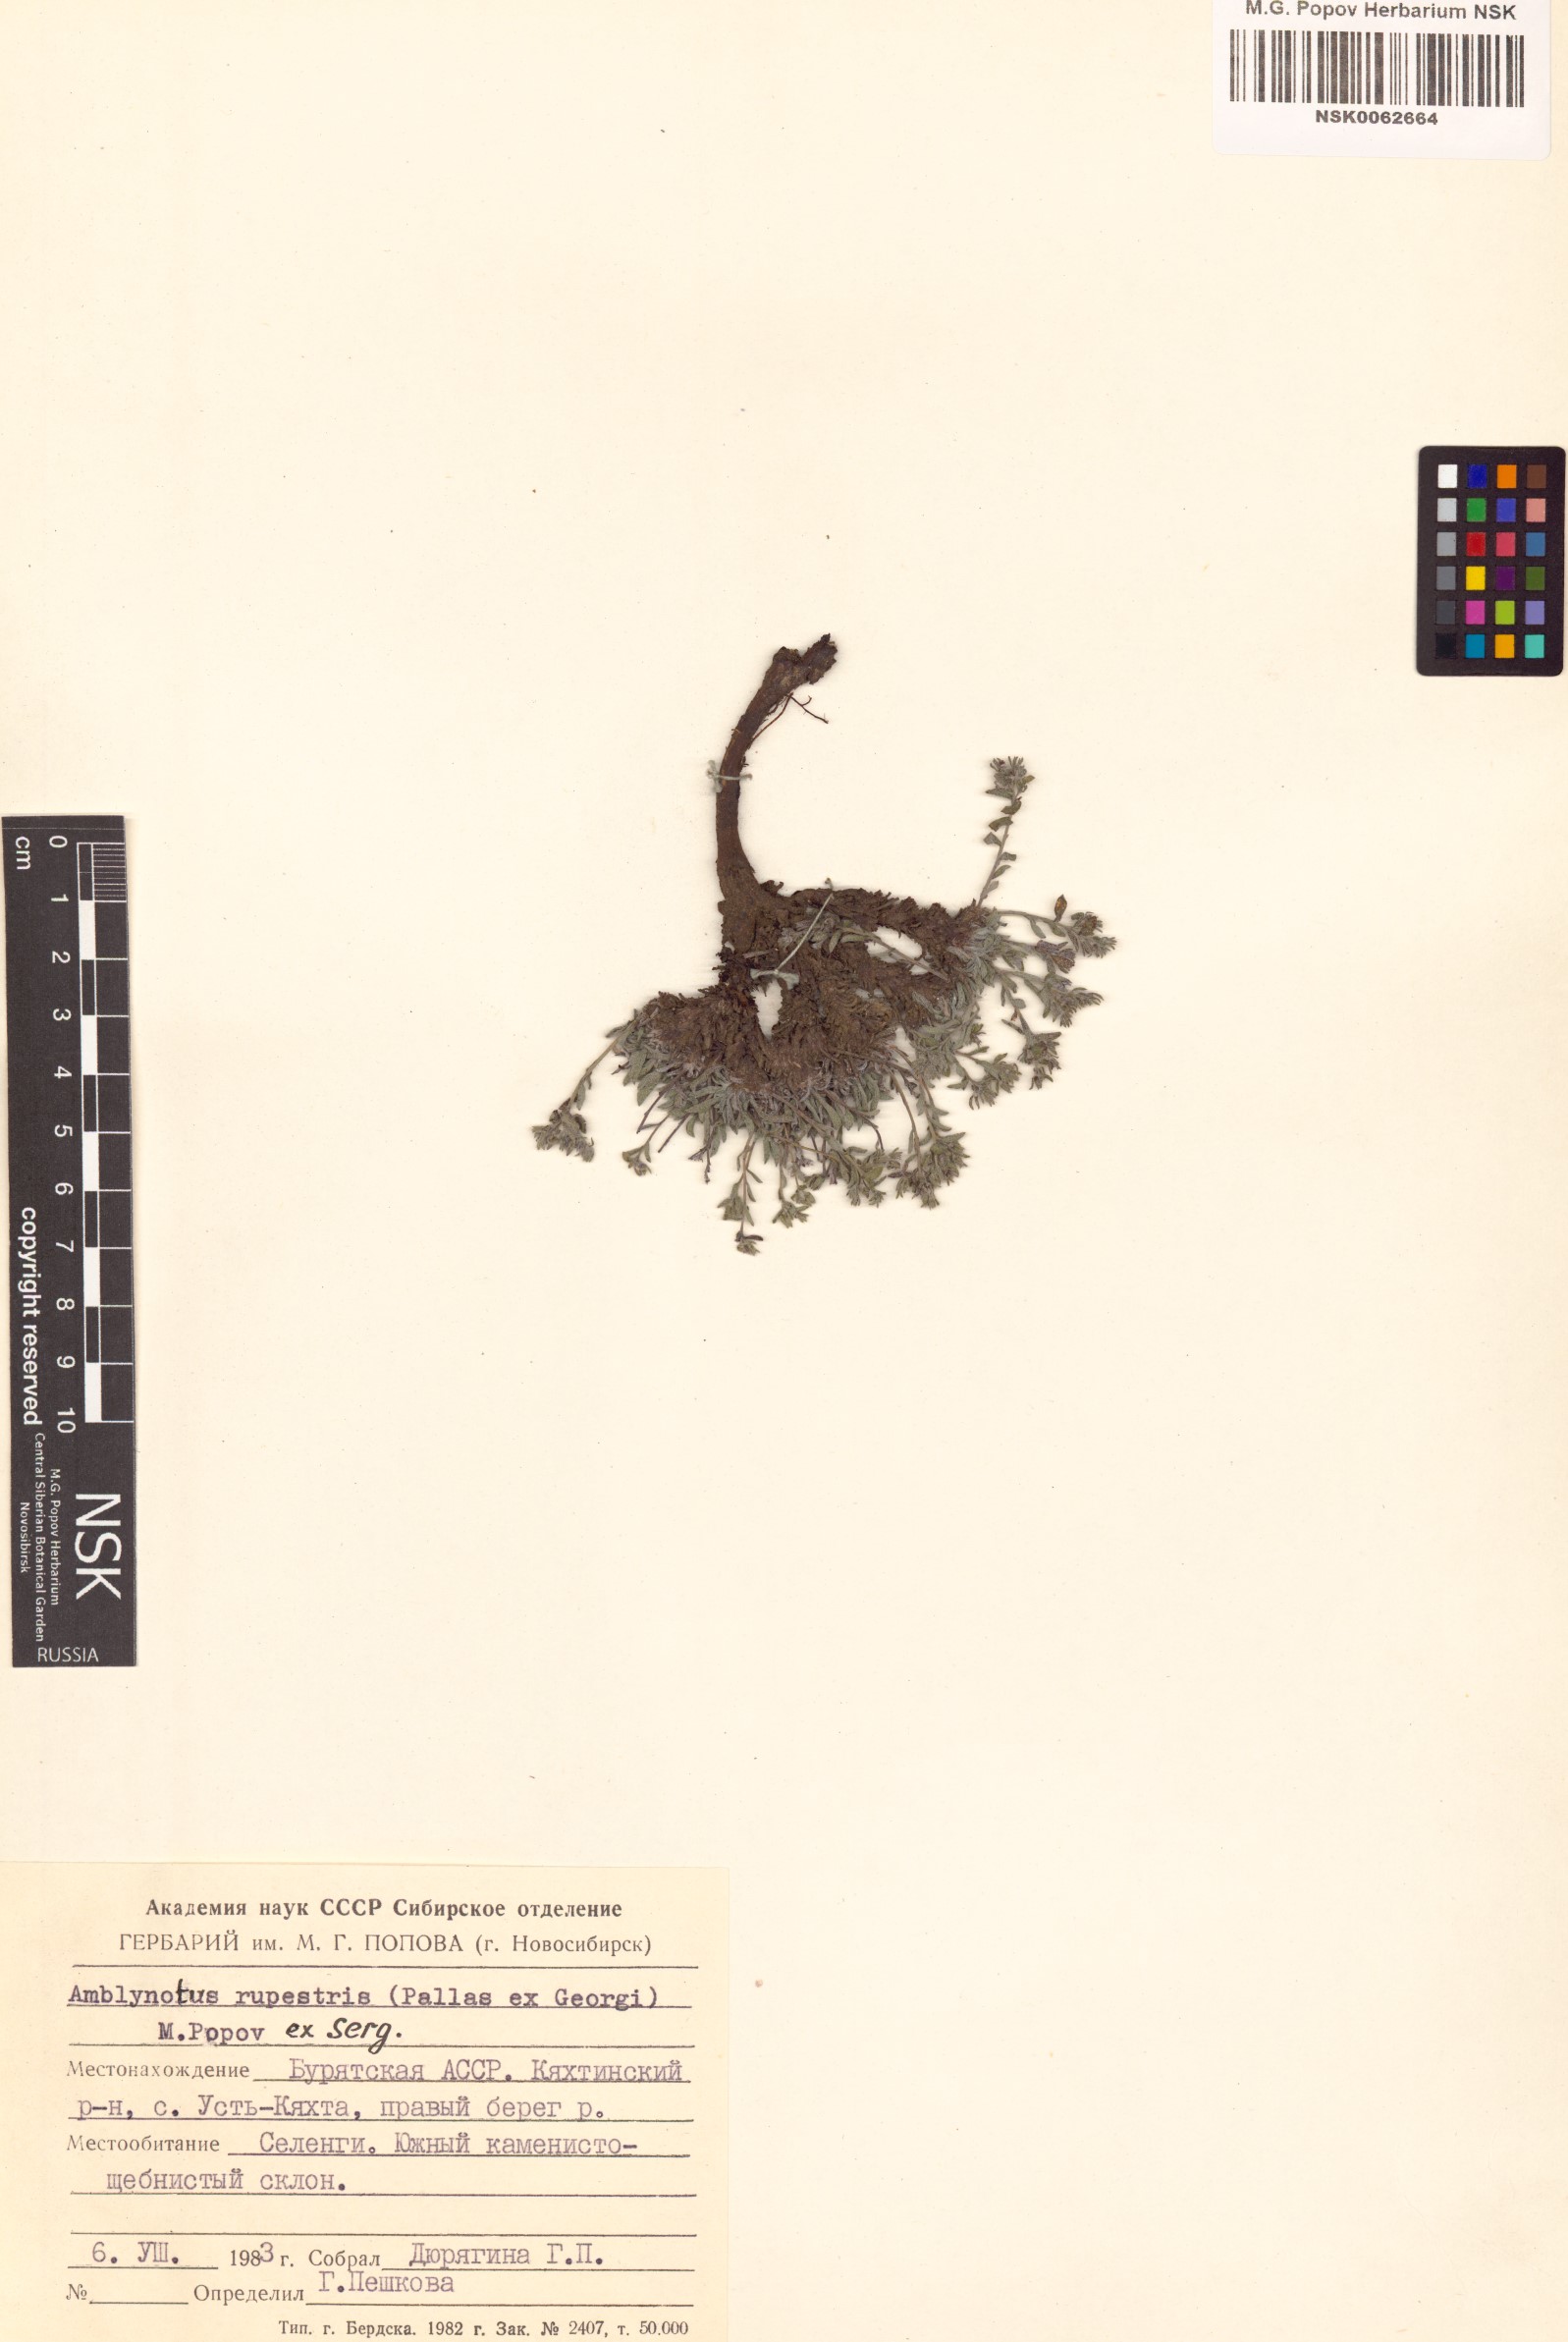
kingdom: Plantae
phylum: Tracheophyta
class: Magnoliopsida
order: Boraginales
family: Boraginaceae
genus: Eritrichium
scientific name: Eritrichium rupestre
